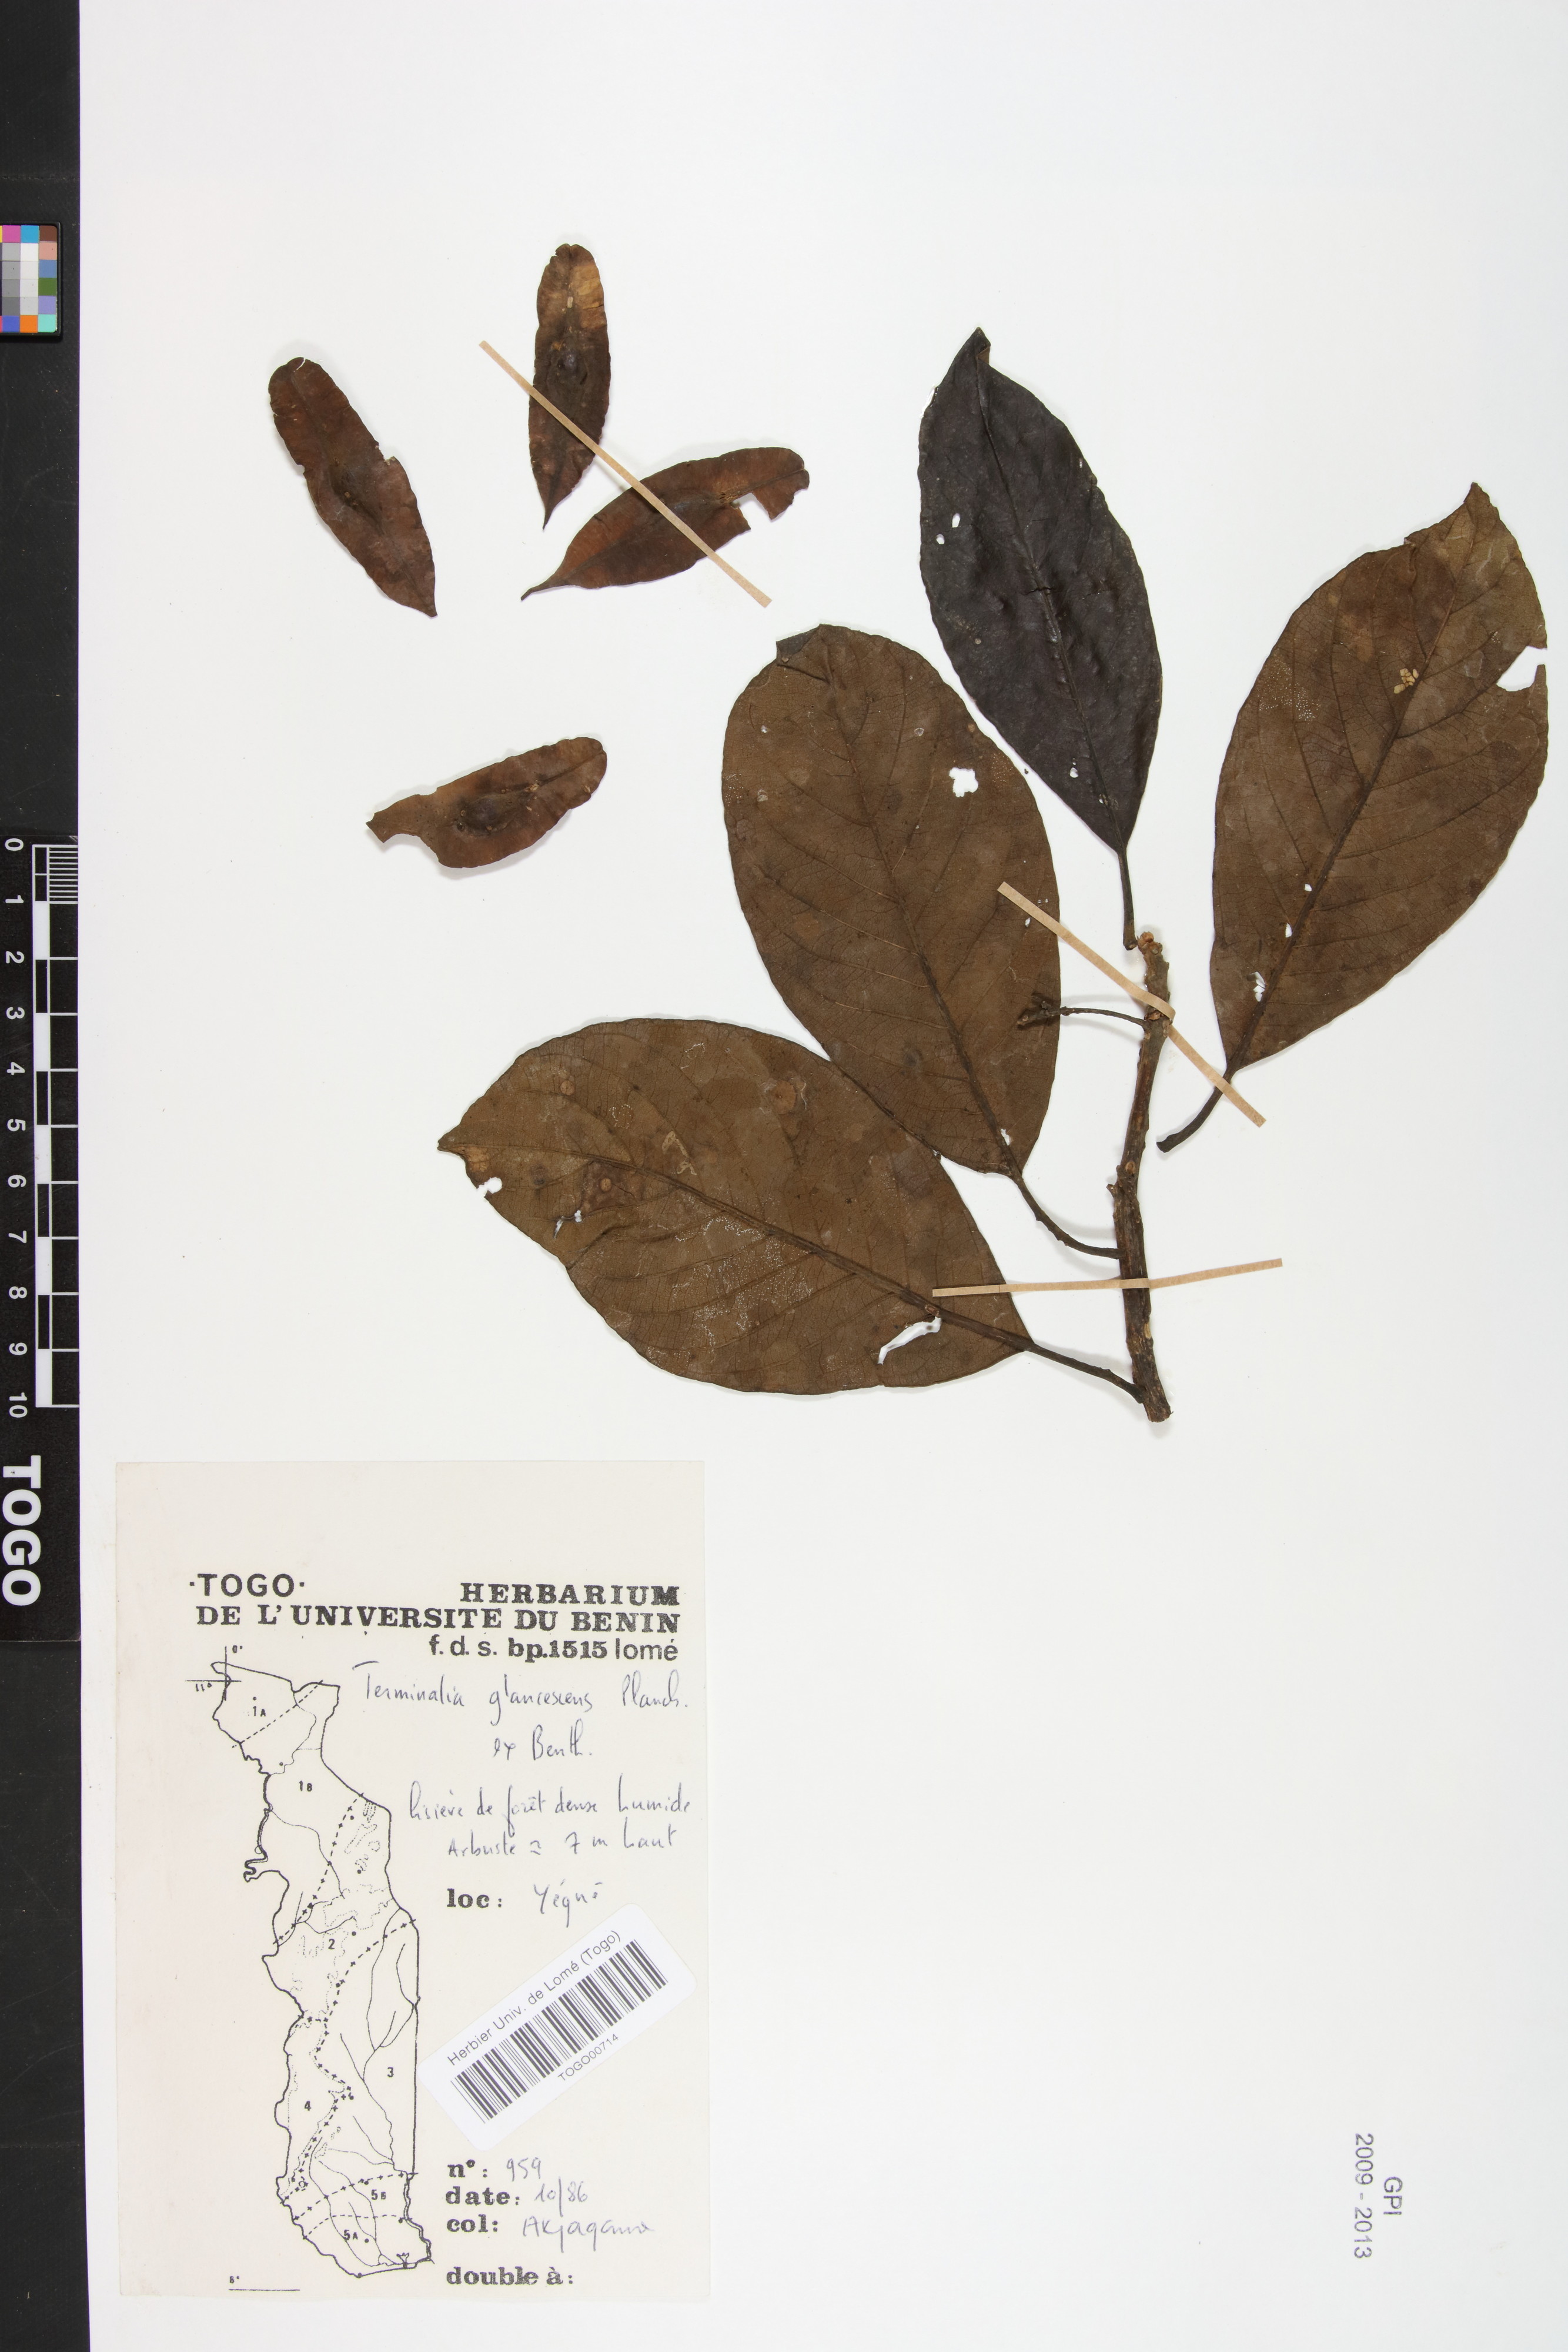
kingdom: Plantae
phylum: Tracheophyta
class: Magnoliopsida
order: Myrtales
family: Combretaceae
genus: Terminalia
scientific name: Terminalia schimperiana
